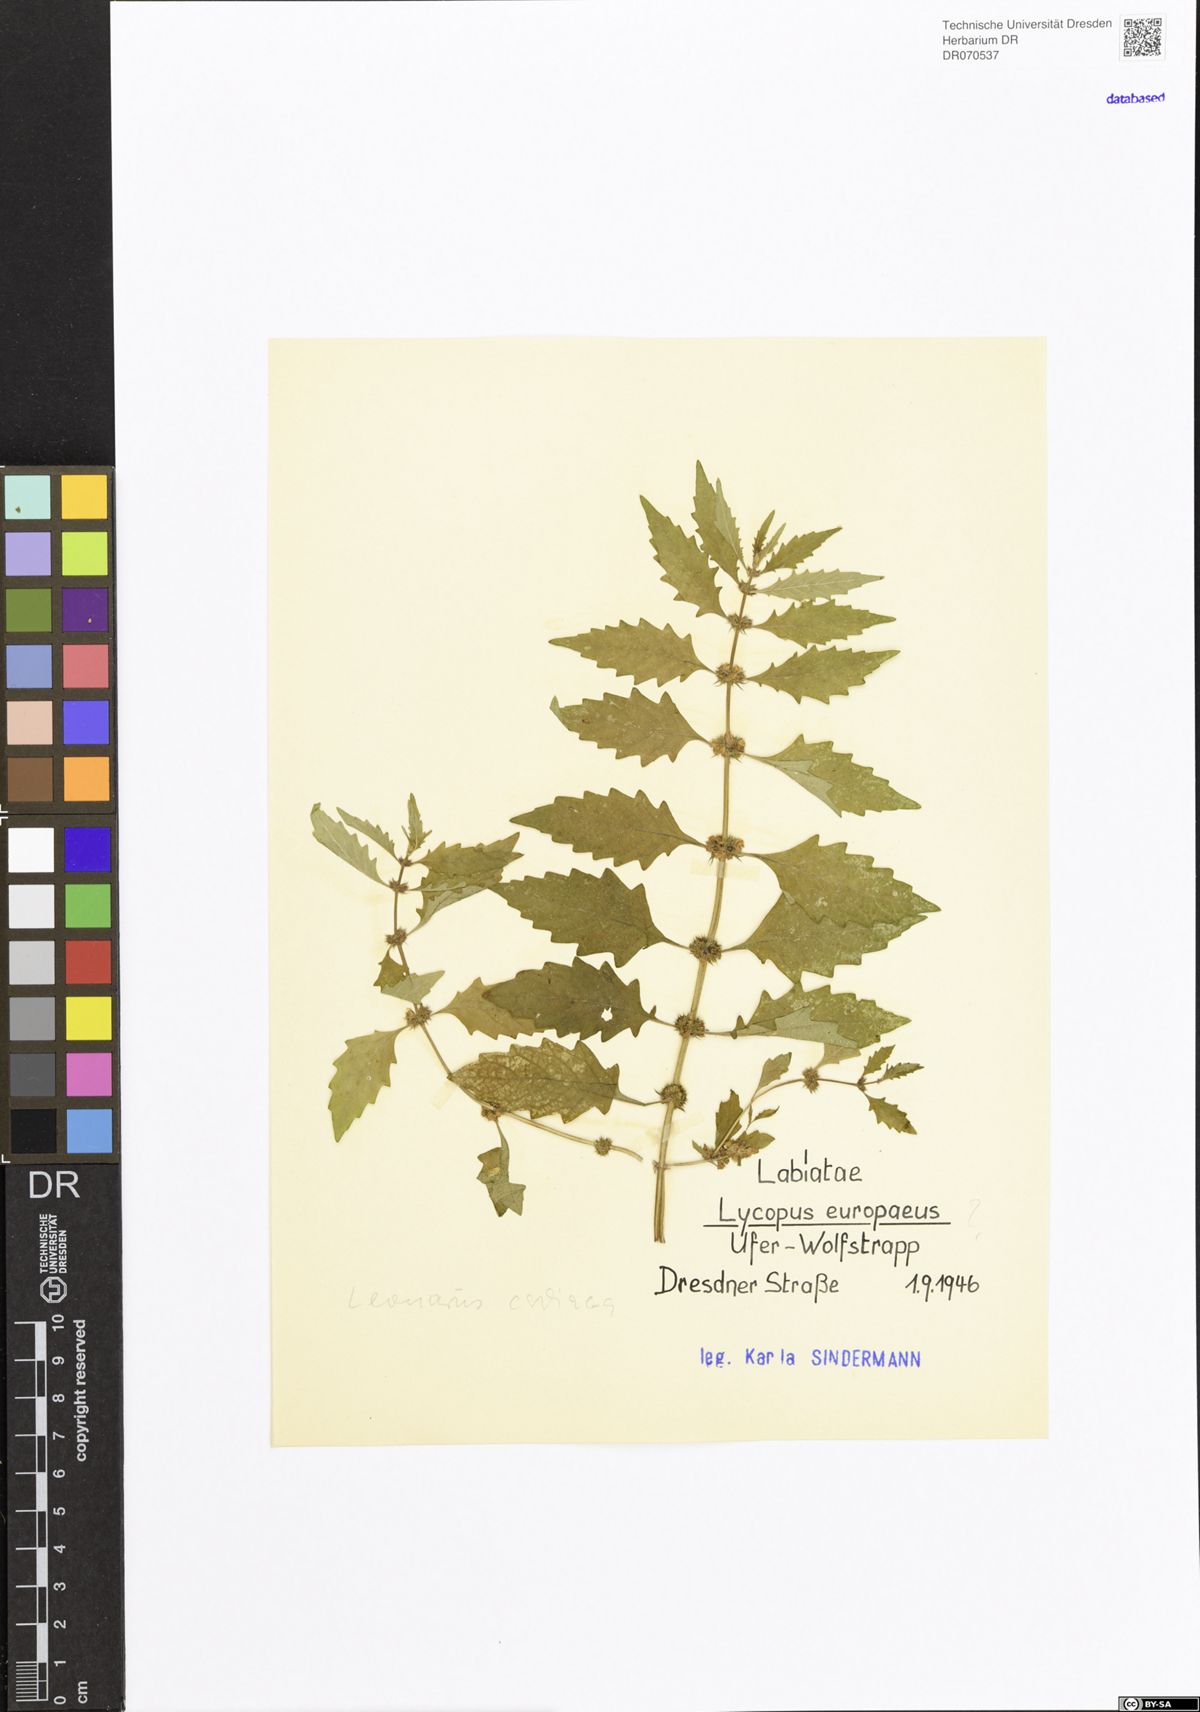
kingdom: Plantae
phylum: Tracheophyta
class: Magnoliopsida
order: Lamiales
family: Lamiaceae
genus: Leonurus
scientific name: Leonurus cardiaca
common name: Motherwort
